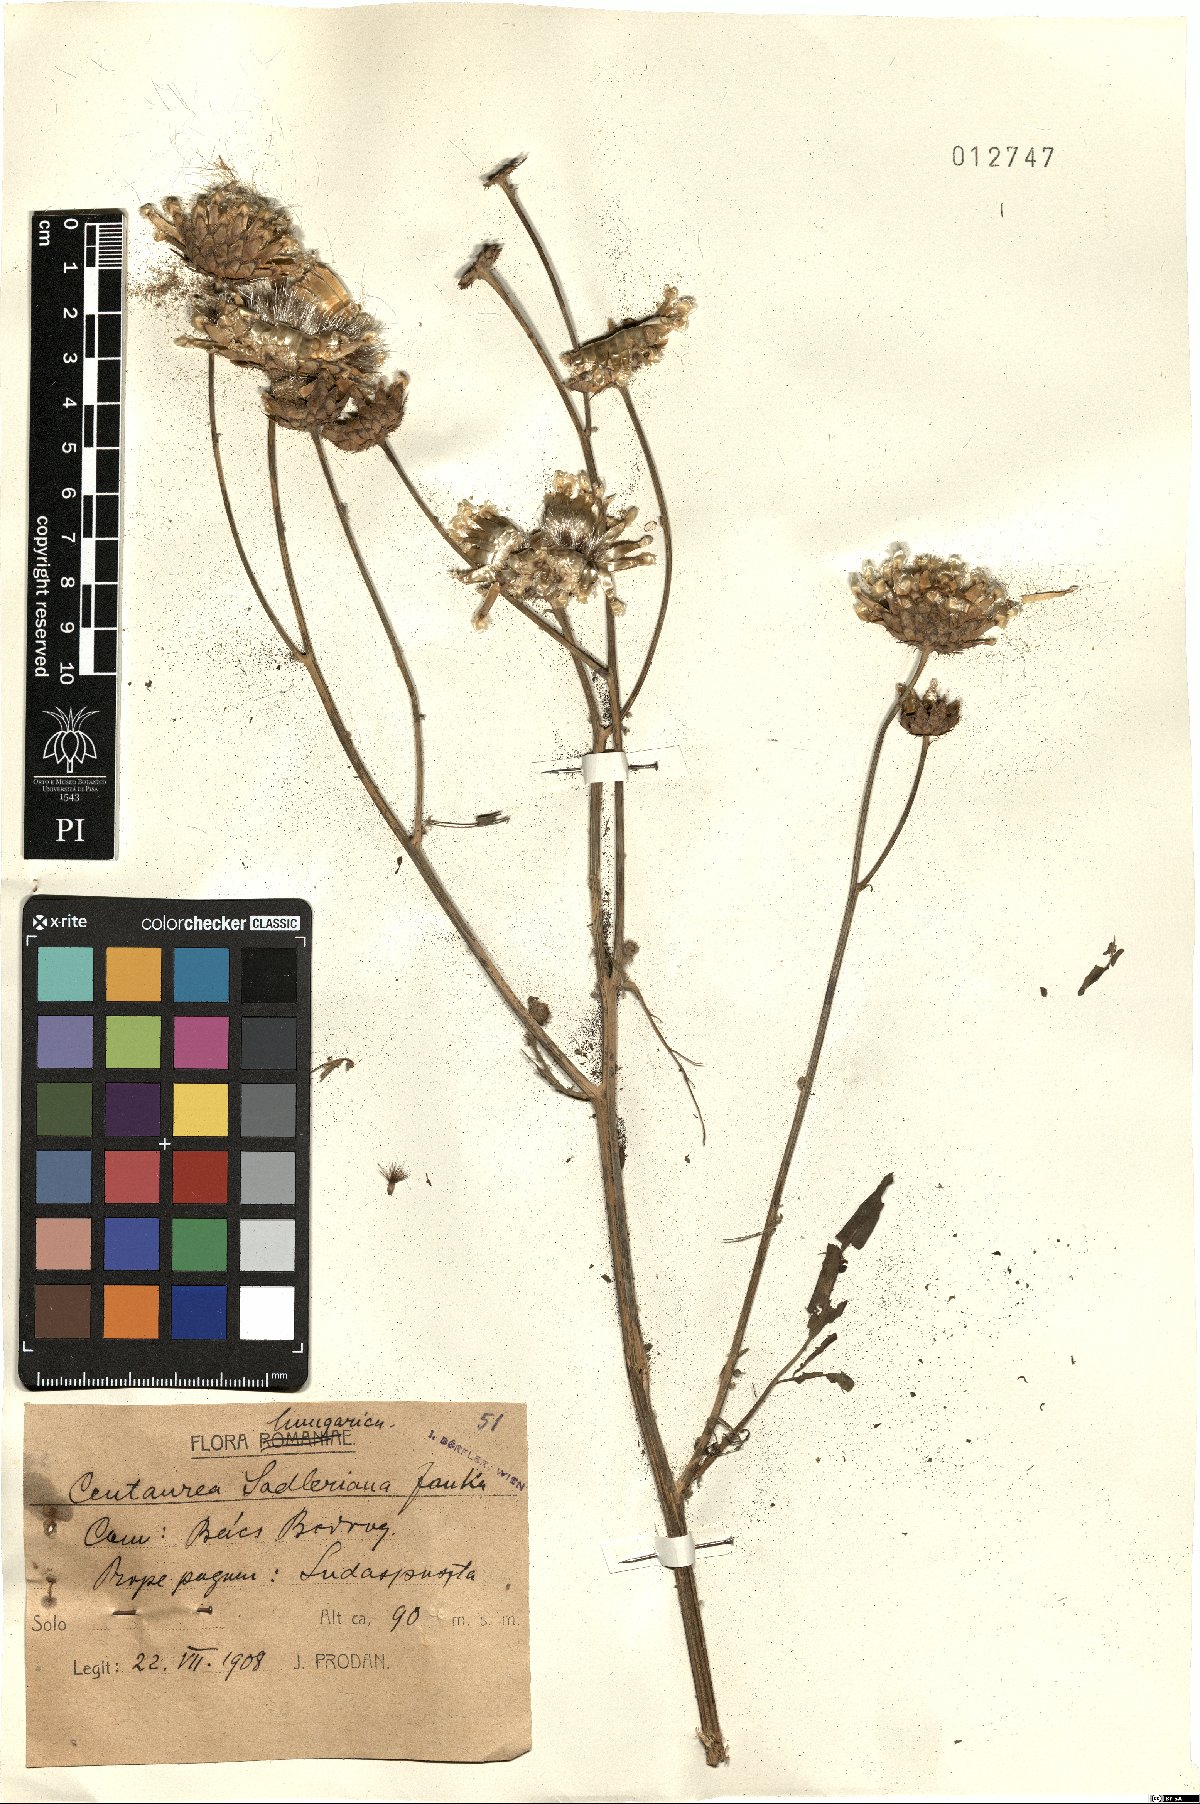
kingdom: Plantae
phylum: Tracheophyta
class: Magnoliopsida
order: Asterales
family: Asteraceae
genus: Centaurea
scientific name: Centaurea sadleriana
